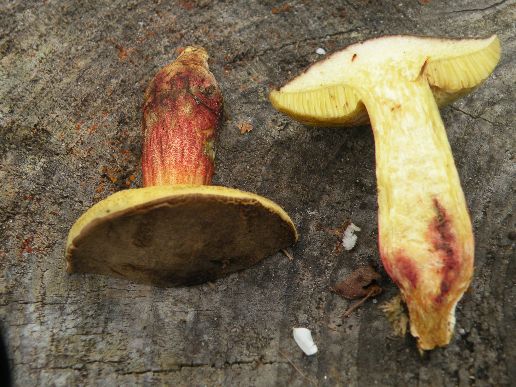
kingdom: Fungi
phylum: Basidiomycota
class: Agaricomycetes
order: Boletales
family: Boletaceae
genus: Xerocomellus
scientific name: Xerocomellus chrysenteron
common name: rødsprukken rørhat
